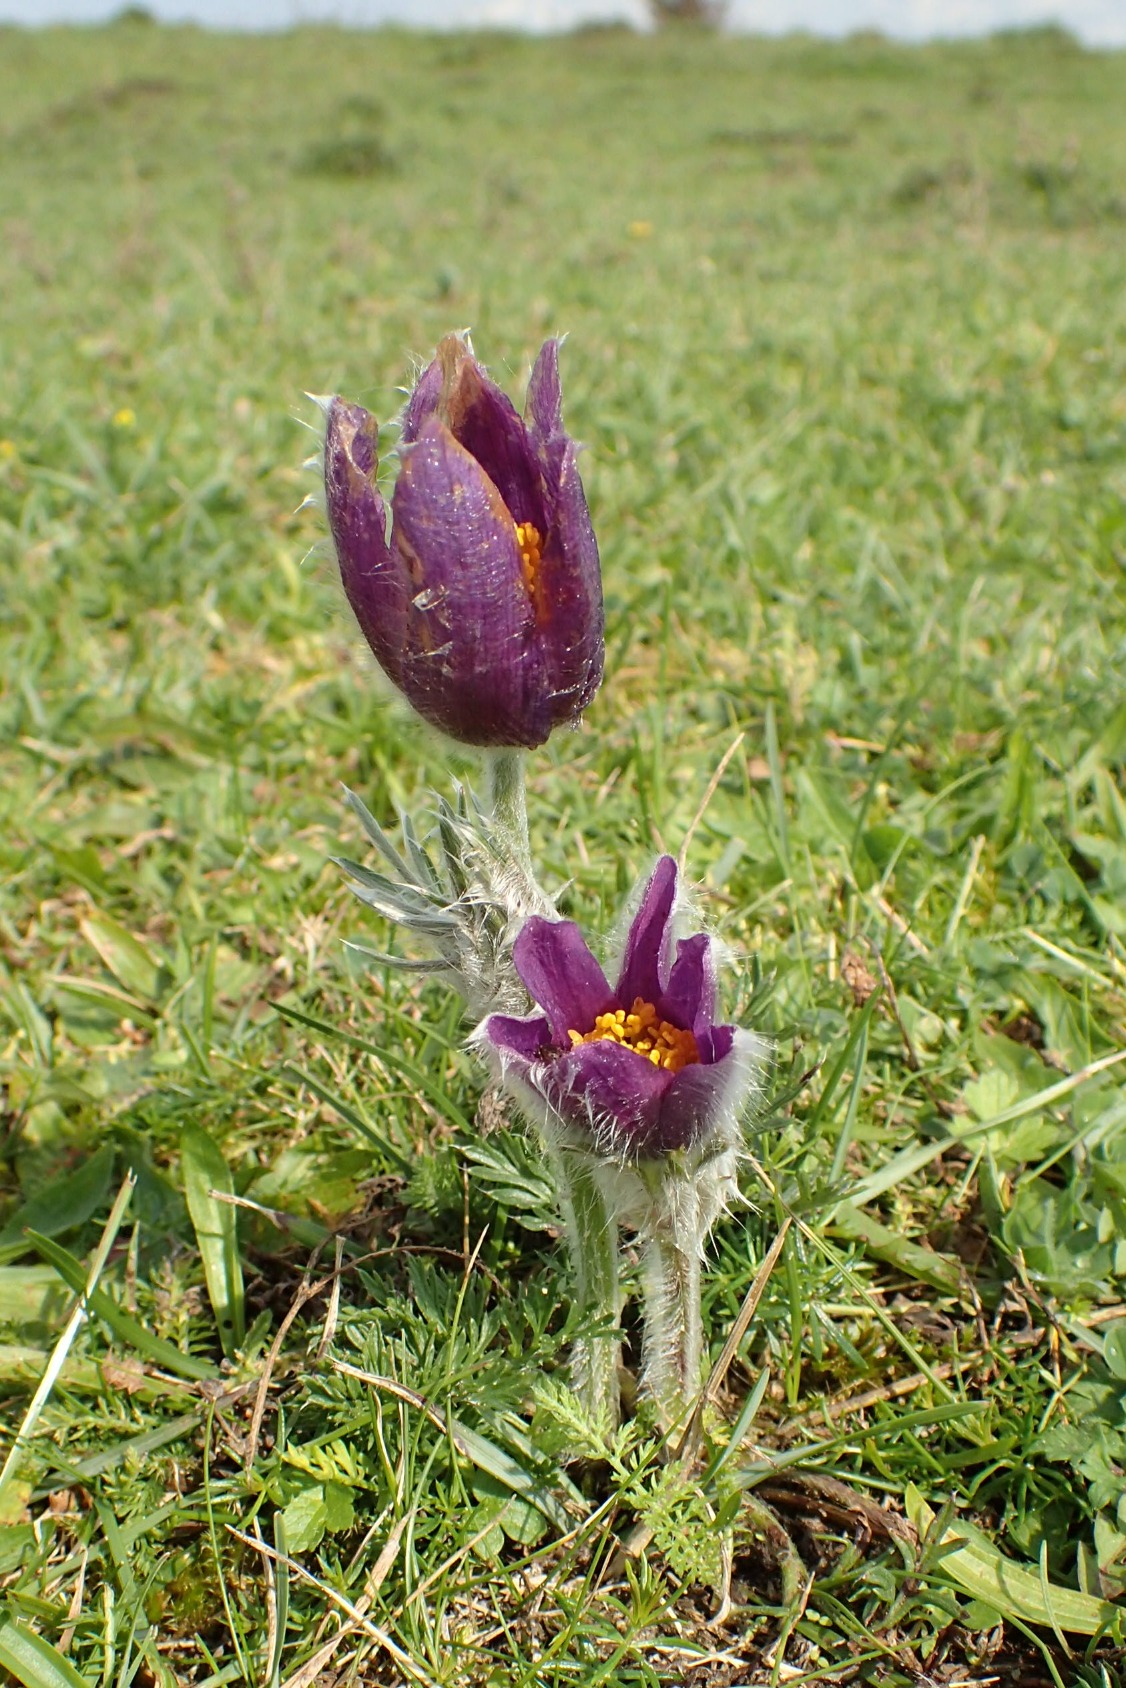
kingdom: Plantae
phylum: Tracheophyta
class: Magnoliopsida
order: Ranunculales
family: Ranunculaceae
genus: Pulsatilla
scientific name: Pulsatilla vulgaris
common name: Opret kobjælde
